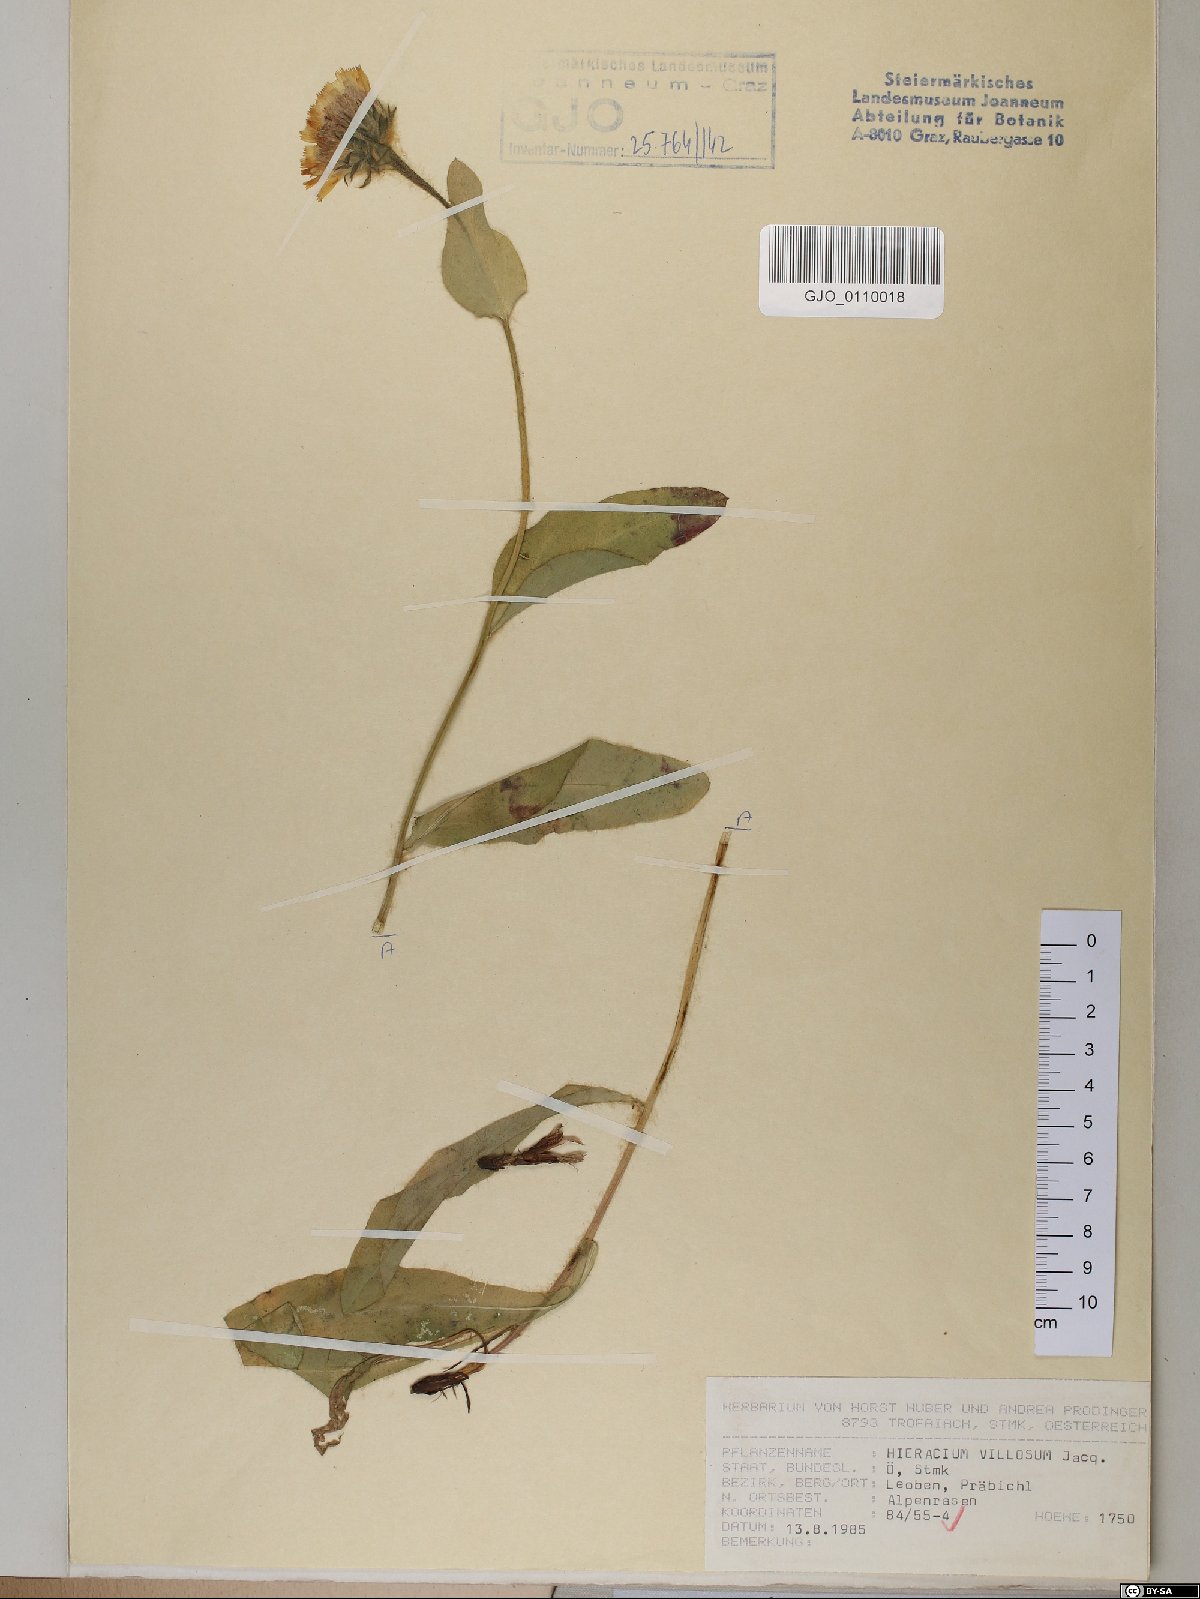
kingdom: Plantae
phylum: Tracheophyta
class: Magnoliopsida
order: Asterales
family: Asteraceae
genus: Hieracium
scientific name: Hieracium villosum
